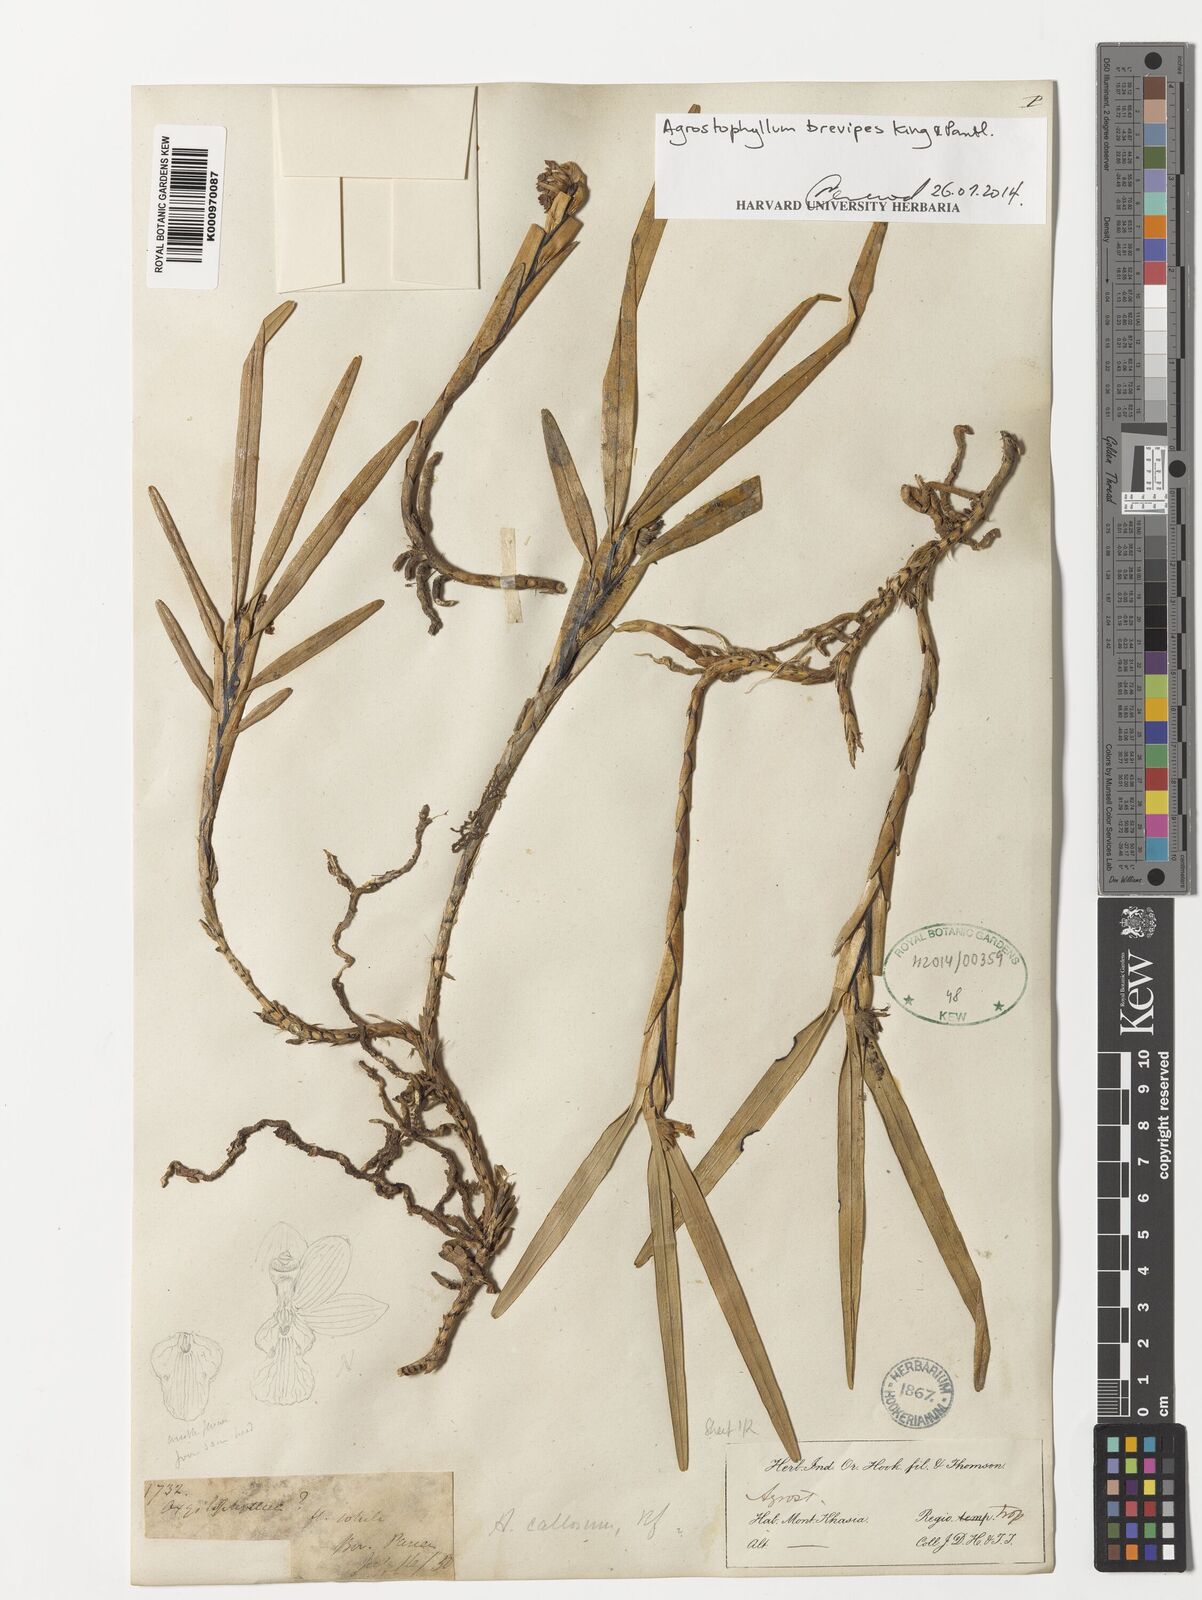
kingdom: Plantae
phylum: Tracheophyta
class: Liliopsida
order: Asparagales
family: Orchidaceae
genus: Agrostophyllum
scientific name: Agrostophyllum brevipes
